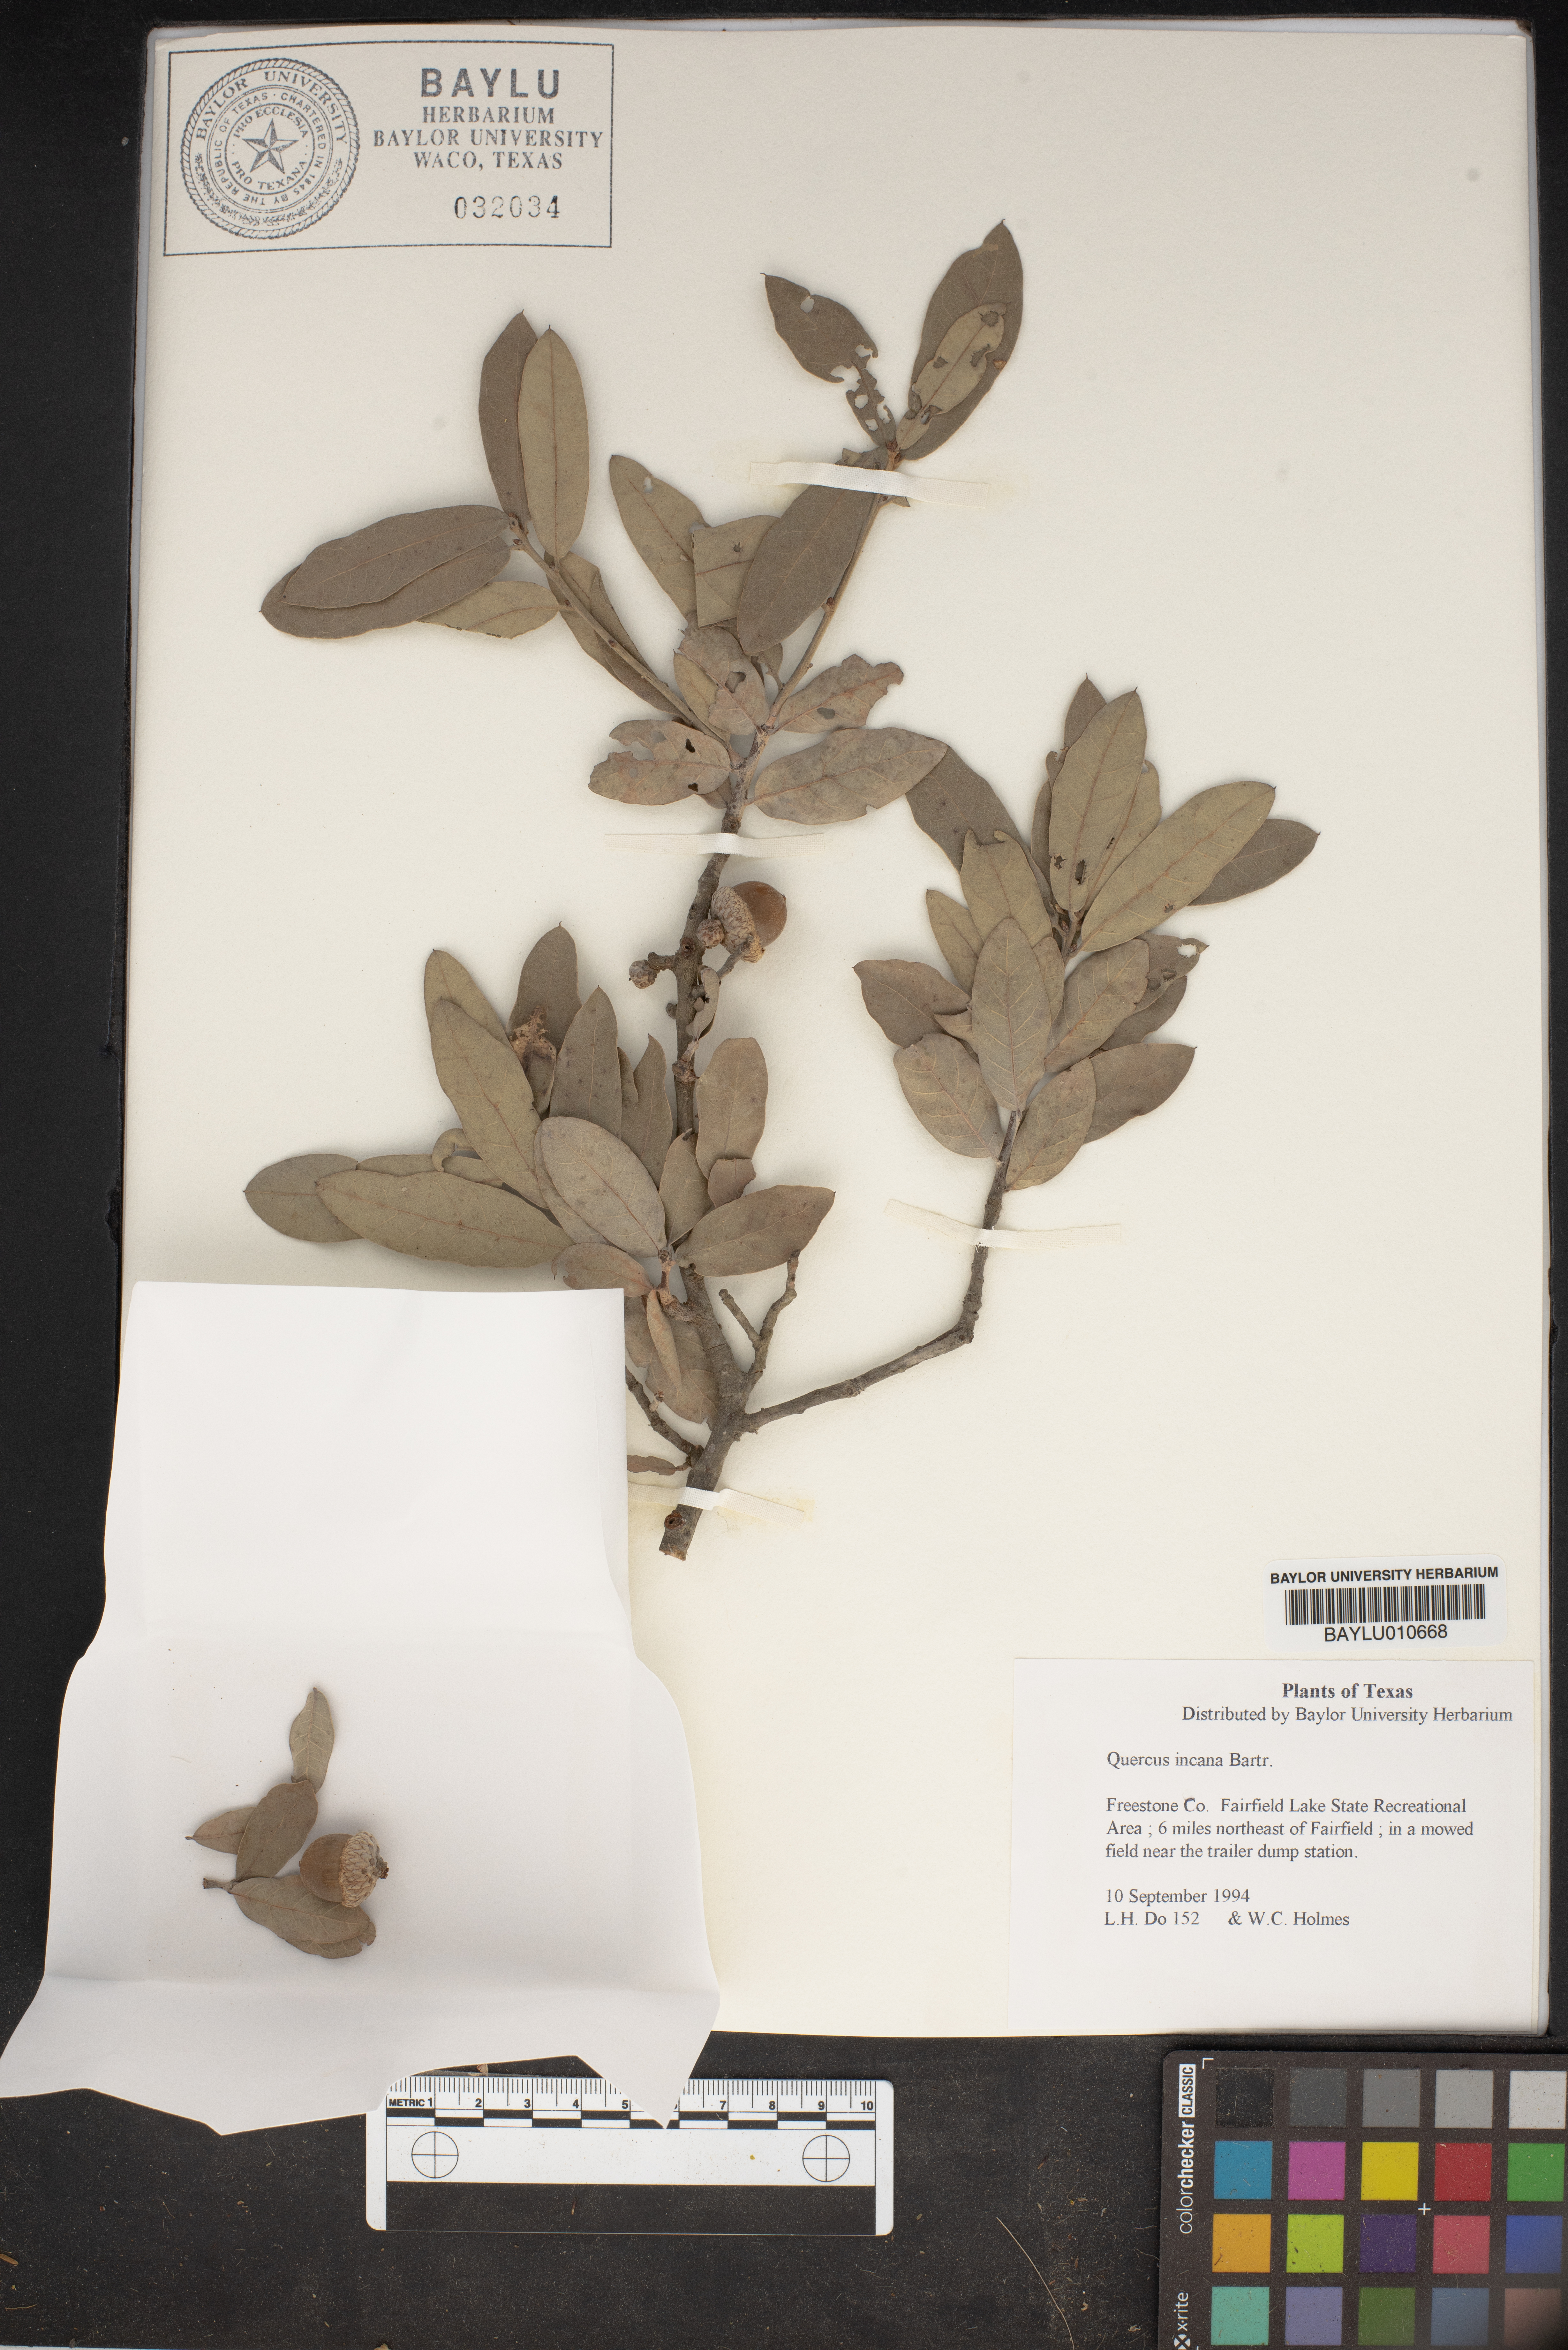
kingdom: Plantae
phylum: Tracheophyta
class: Magnoliopsida
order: Fagales
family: Fagaceae
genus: Quercus
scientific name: Quercus incana
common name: Bluejack oak
